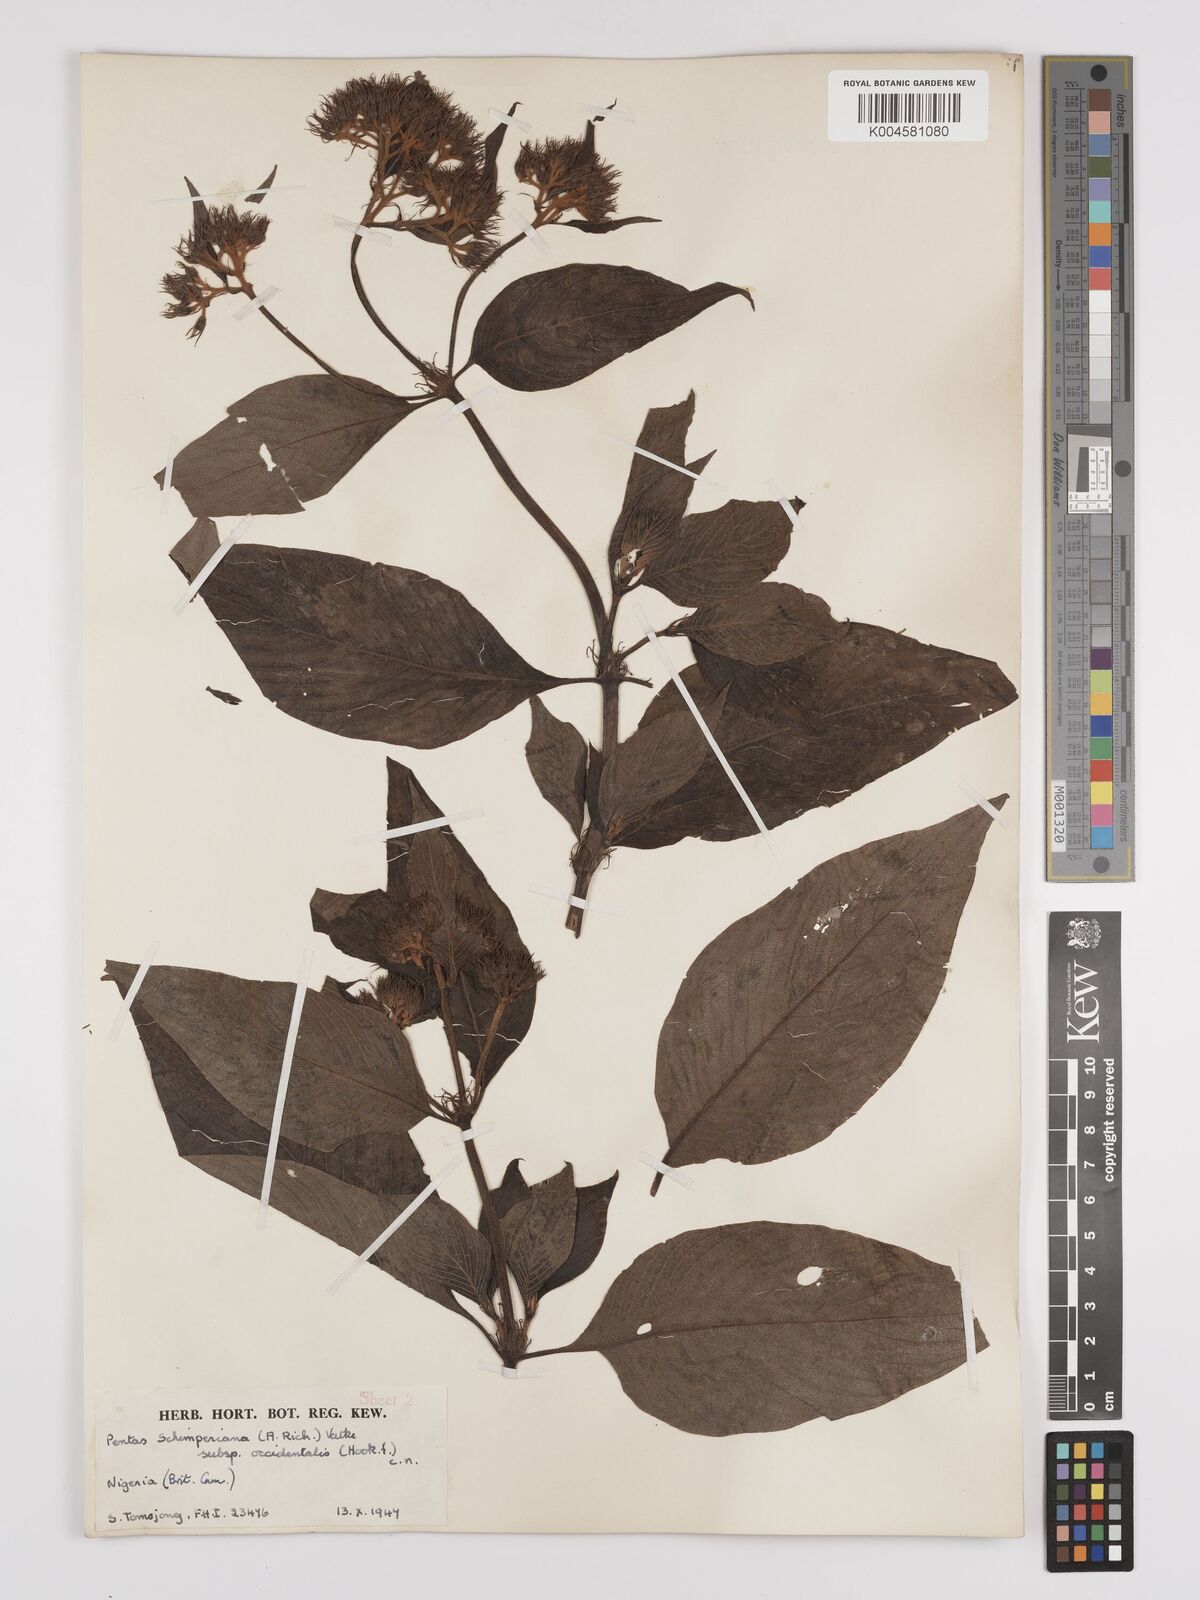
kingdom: Plantae
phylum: Tracheophyta
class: Magnoliopsida
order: Gentianales
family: Rubiaceae
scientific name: Rubiaceae
